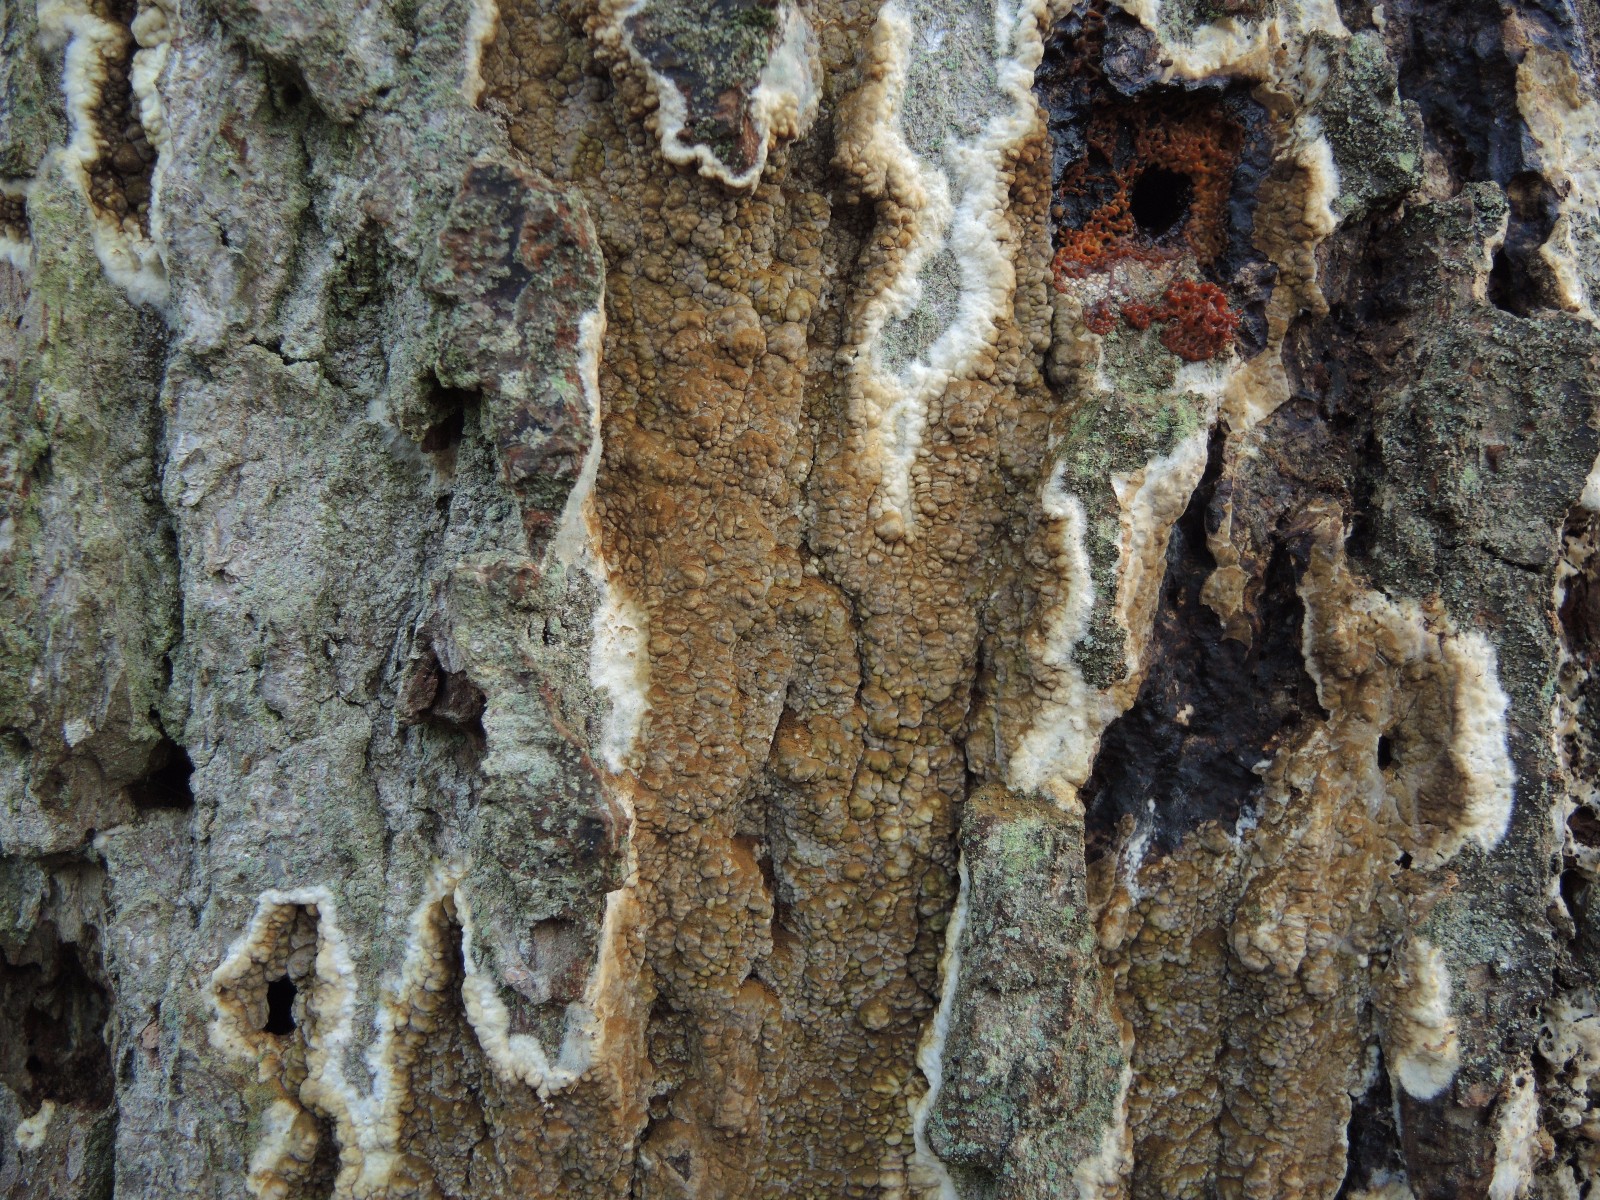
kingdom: Fungi
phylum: Basidiomycota
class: Agaricomycetes
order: Boletales
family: Coniophoraceae
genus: Coniophora
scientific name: Coniophora puteana
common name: gul tømmersvamp
